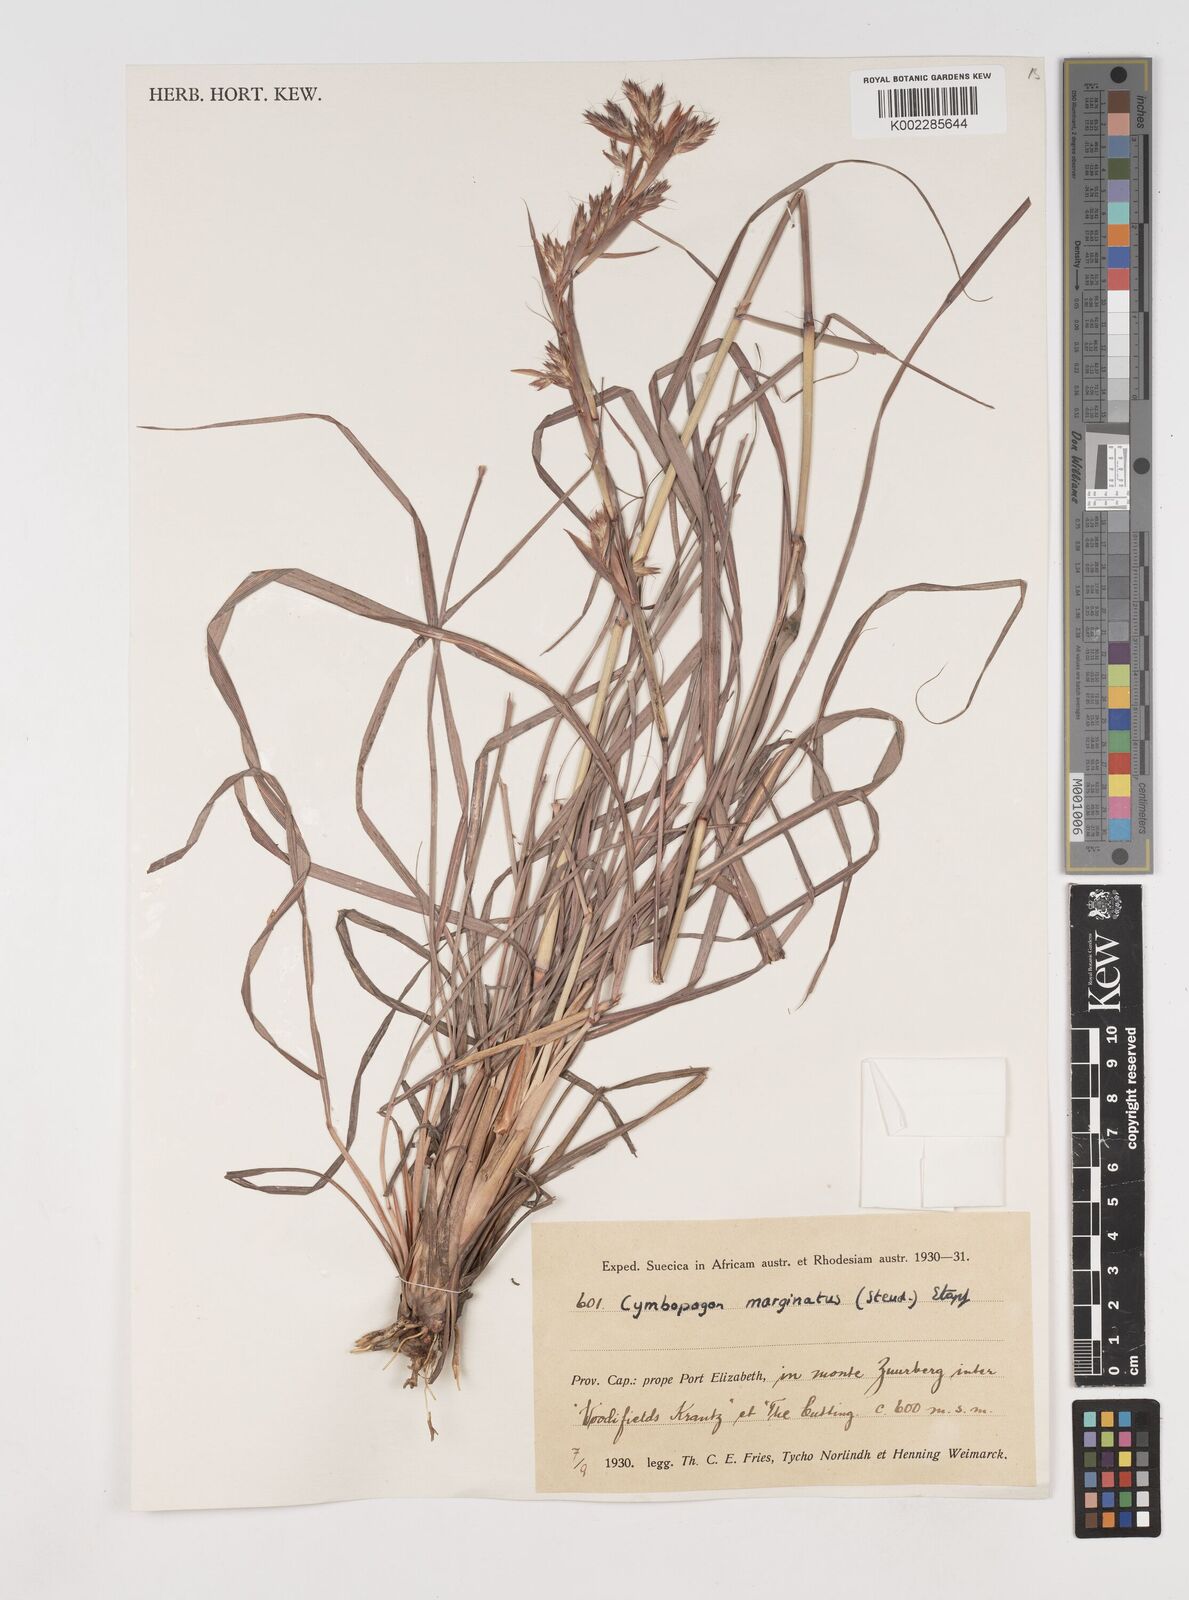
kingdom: Plantae
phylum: Tracheophyta
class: Liliopsida
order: Poales
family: Poaceae
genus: Cymbopogon
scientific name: Cymbopogon marginatus
